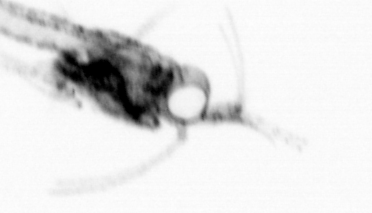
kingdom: Animalia
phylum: Arthropoda
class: Malacostraca
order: Decapoda
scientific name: Decapoda
